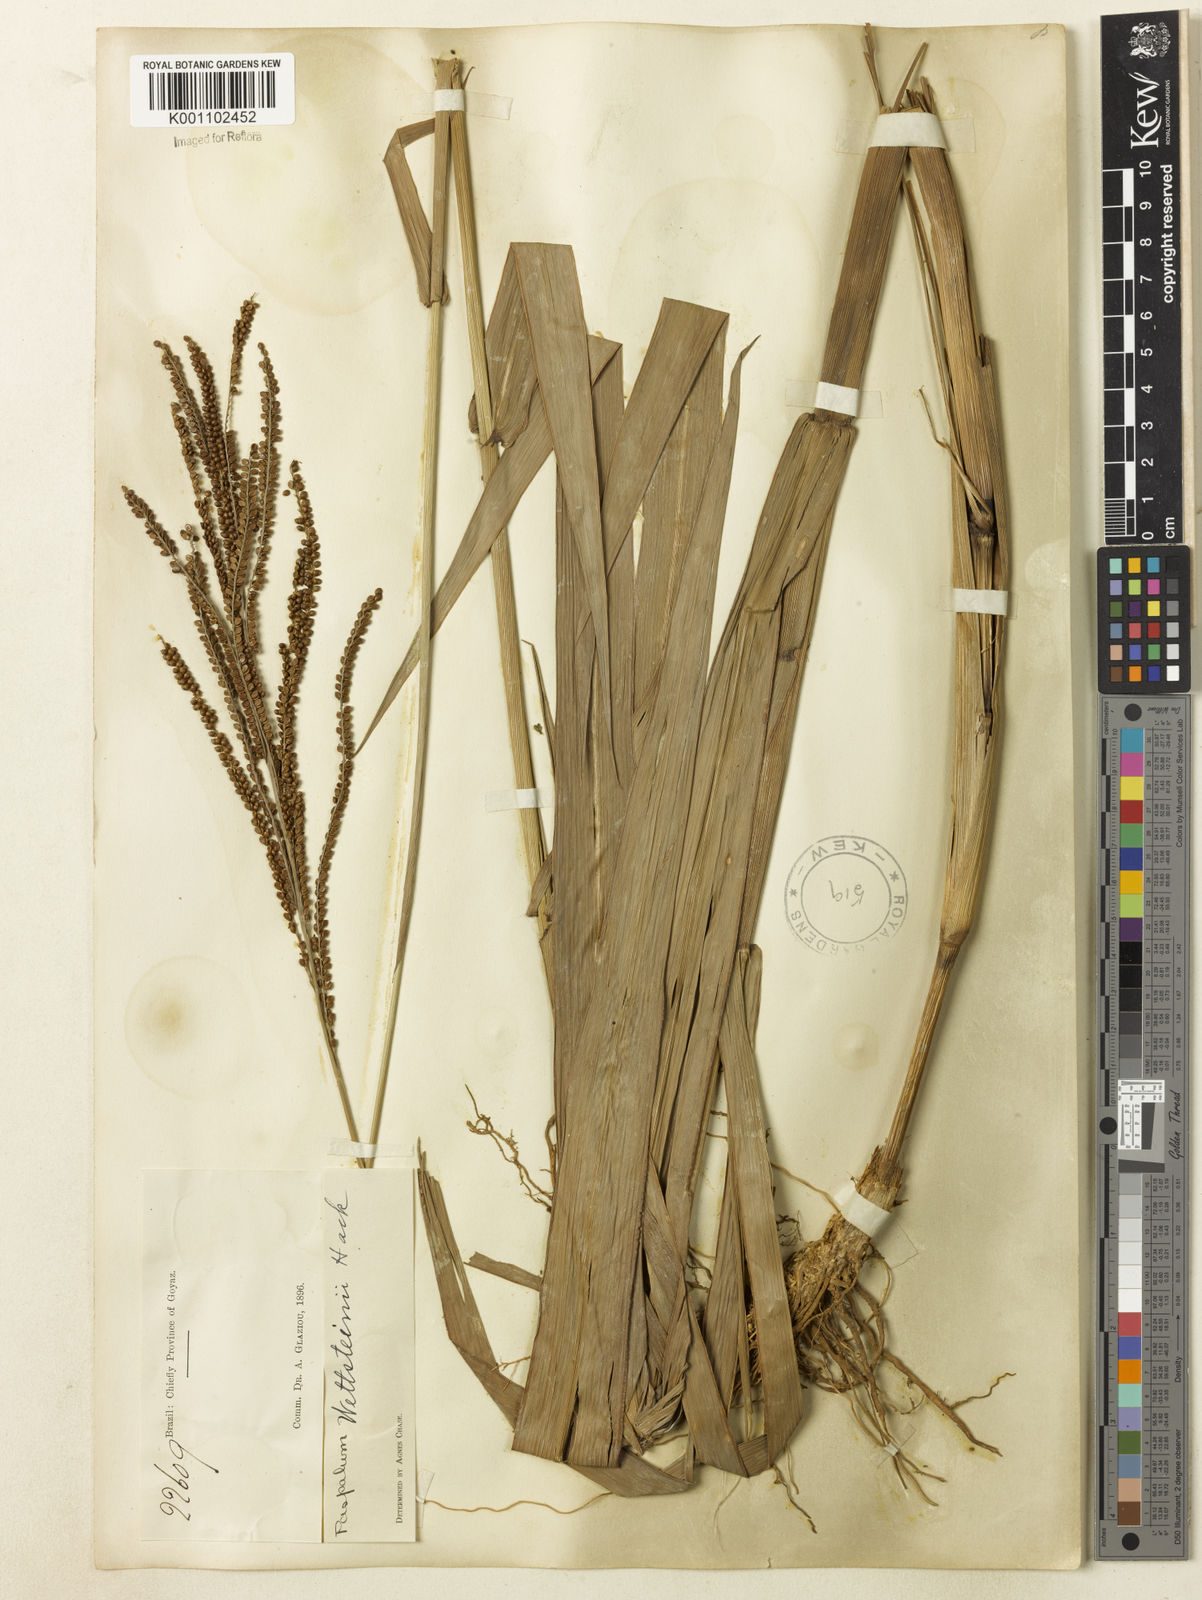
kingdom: Plantae
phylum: Tracheophyta
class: Liliopsida
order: Poales
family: Poaceae
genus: Paspalum
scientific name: Paspalum virgatum
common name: Talquezal
